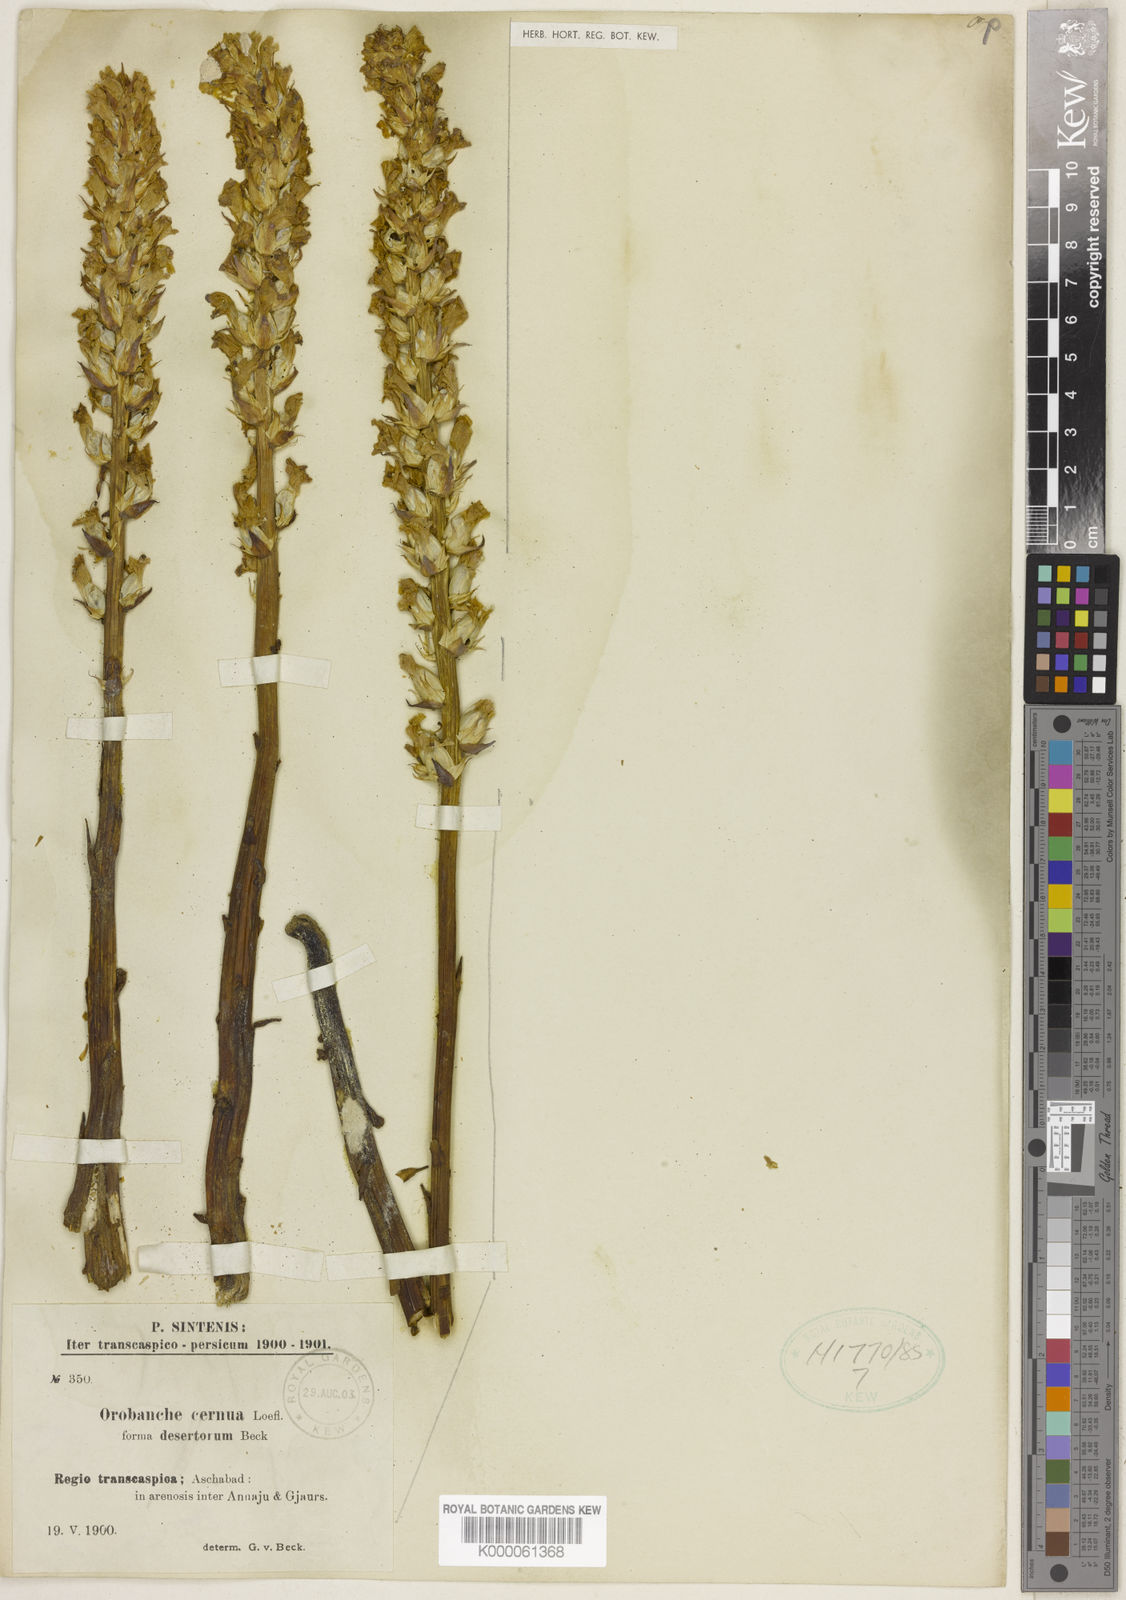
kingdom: Plantae
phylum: Tracheophyta
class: Magnoliopsida
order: Lamiales
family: Orobanchaceae
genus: Orobanche
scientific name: Orobanche cernua
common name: Australian broomrape
